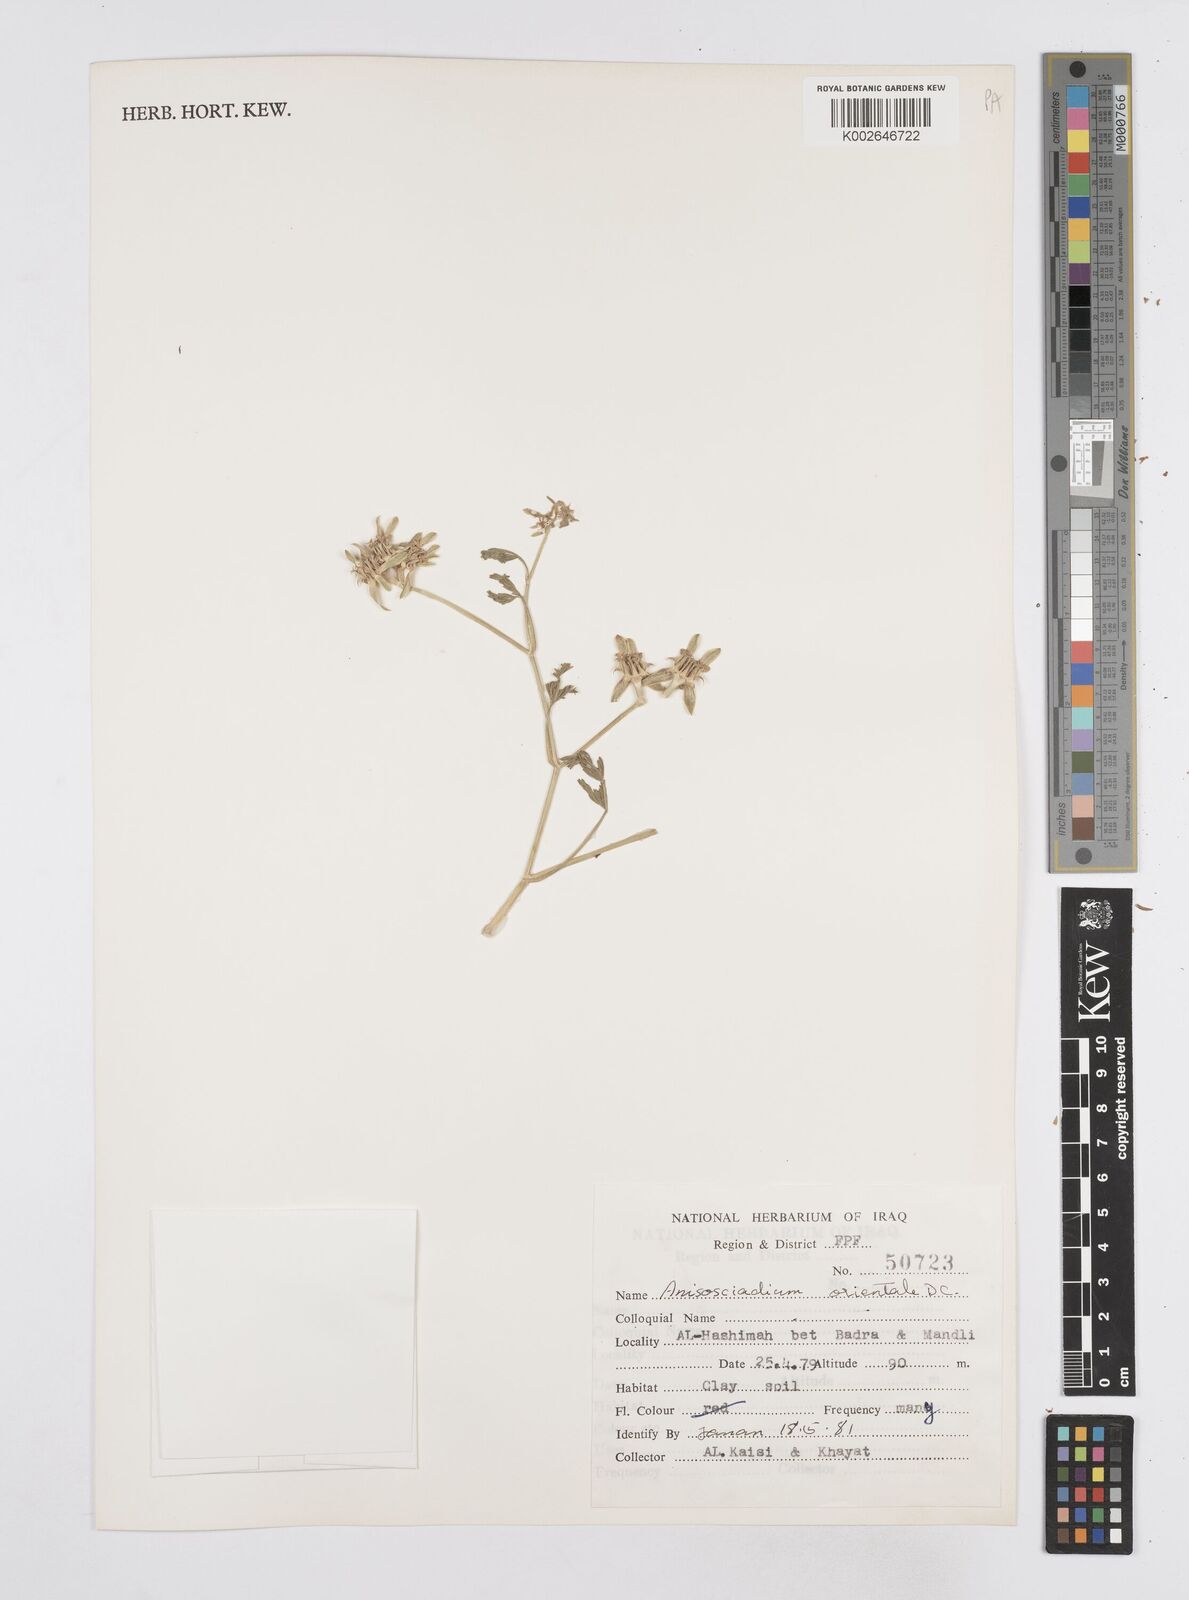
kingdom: Plantae
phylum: Tracheophyta
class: Magnoliopsida
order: Apiales
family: Apiaceae
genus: Anisosciadium
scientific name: Anisosciadium orientale
